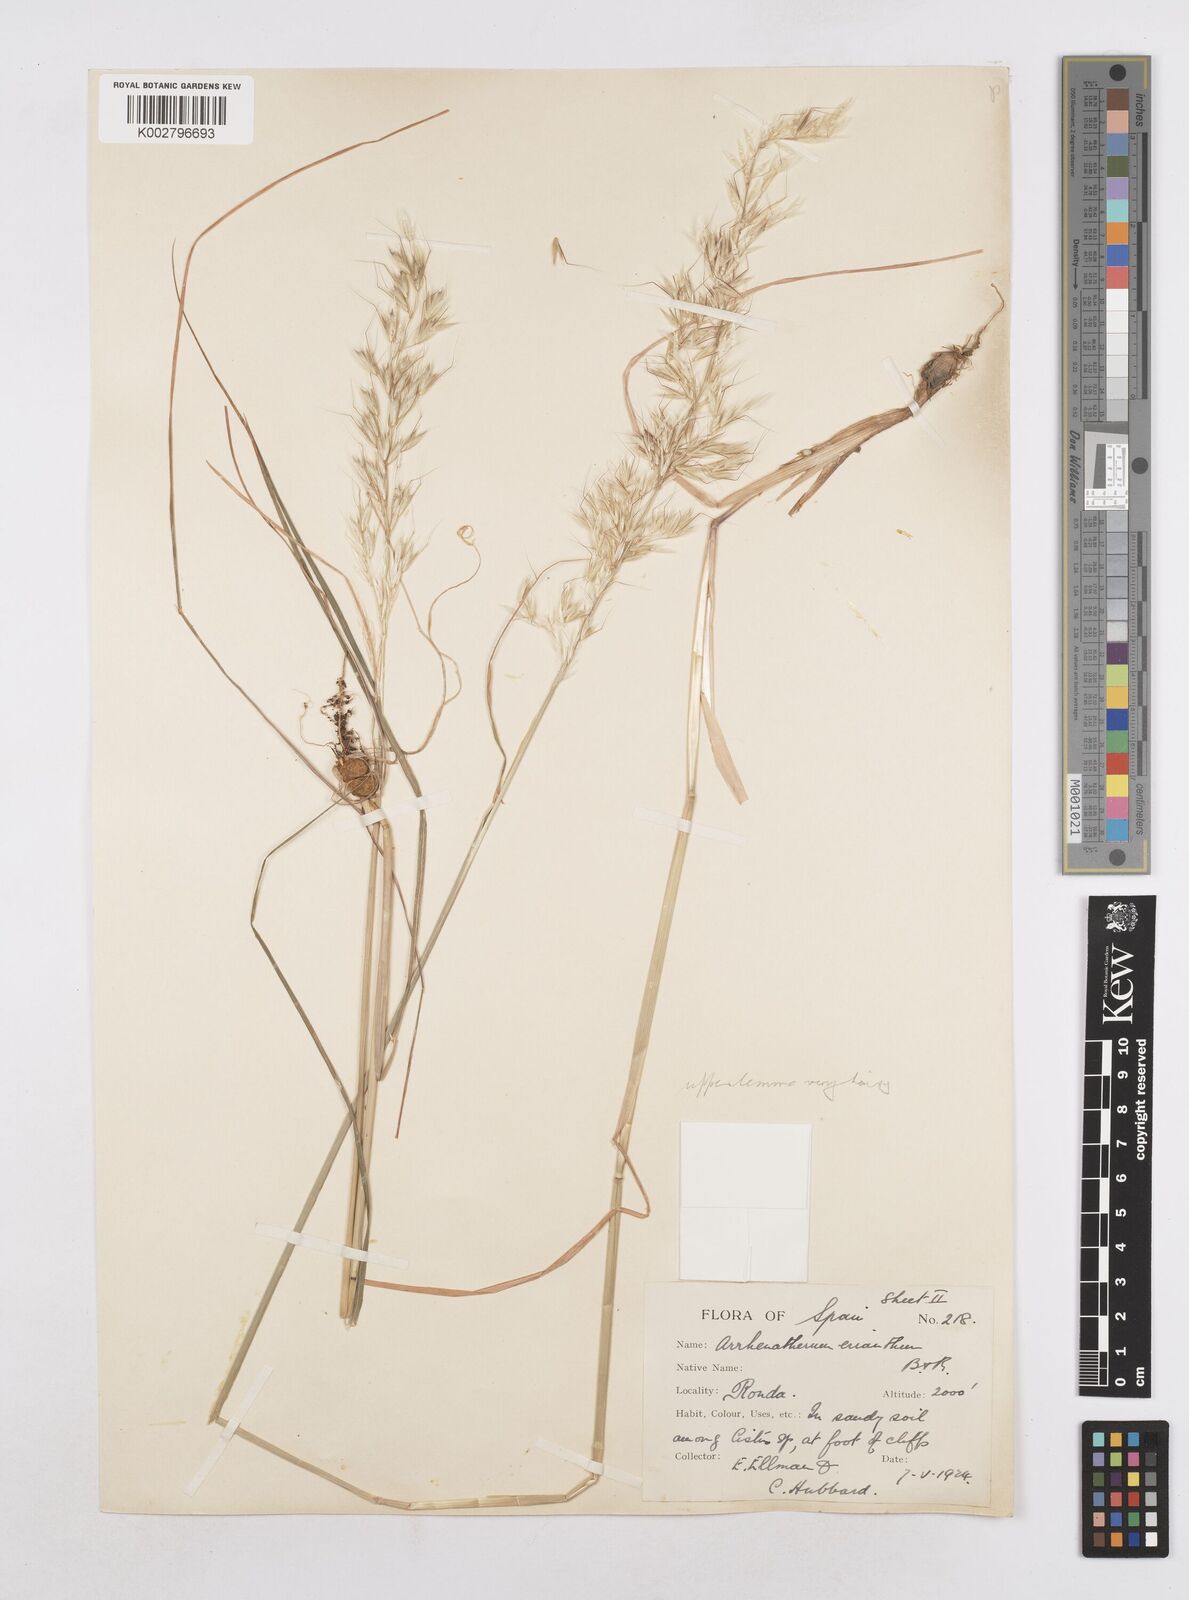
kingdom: Plantae
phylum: Tracheophyta
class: Liliopsida
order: Poales
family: Poaceae
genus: Arrhenatherum
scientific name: Arrhenatherum album
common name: Tall oat grass
